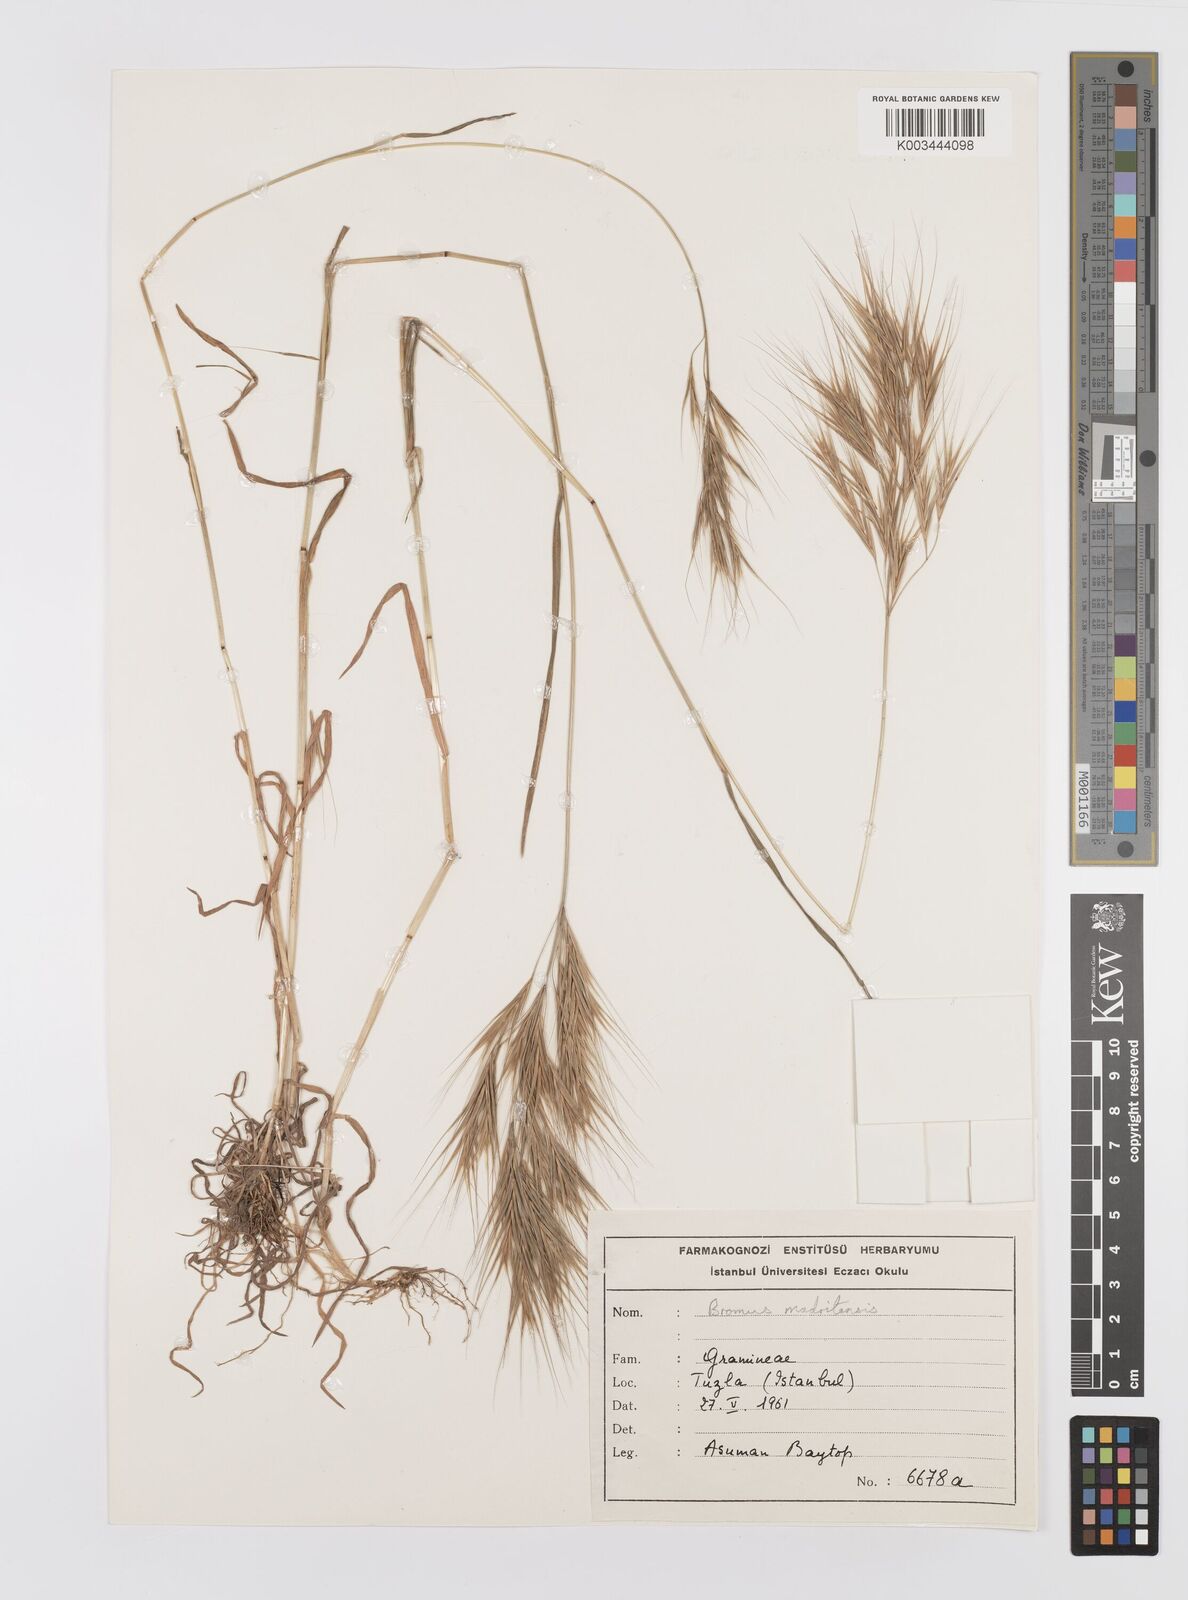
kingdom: Plantae
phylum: Tracheophyta
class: Liliopsida
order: Poales
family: Poaceae
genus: Bromus
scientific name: Bromus madritensis
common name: Compact brome
